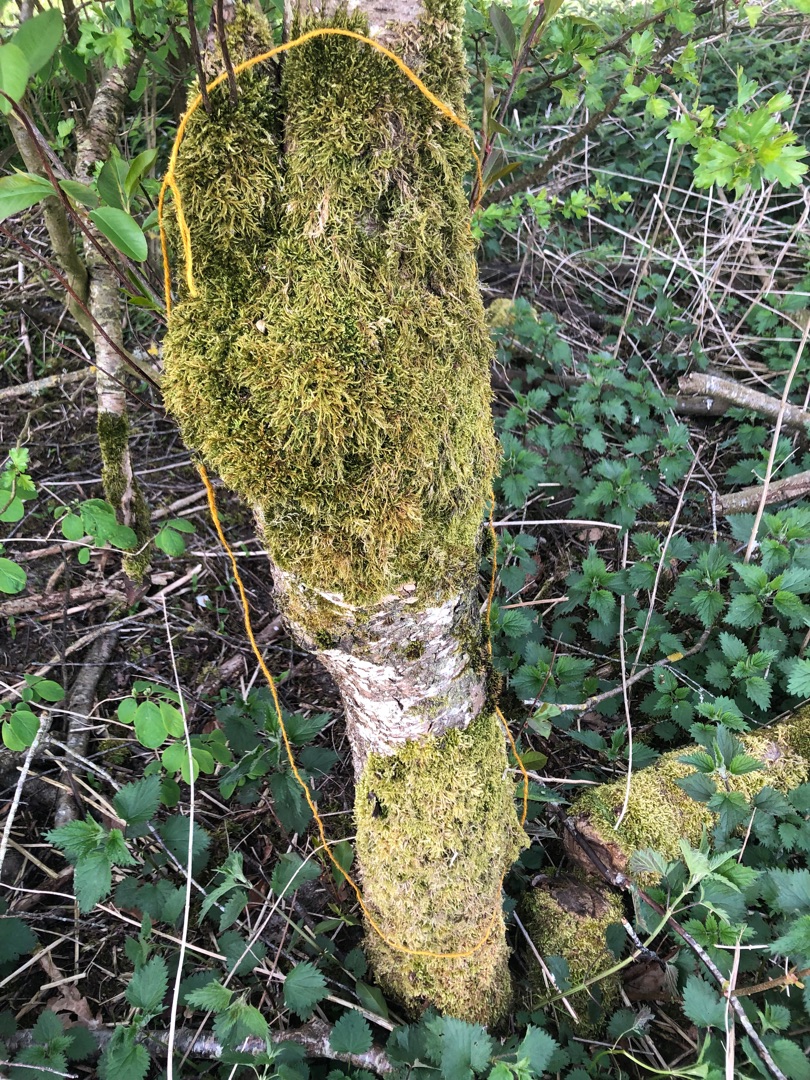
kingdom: Plantae
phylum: Bryophyta
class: Bryopsida
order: Hypnales
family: Hypnaceae
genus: Hypnum
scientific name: Hypnum cupressiforme
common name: Almindelig cypresmos
